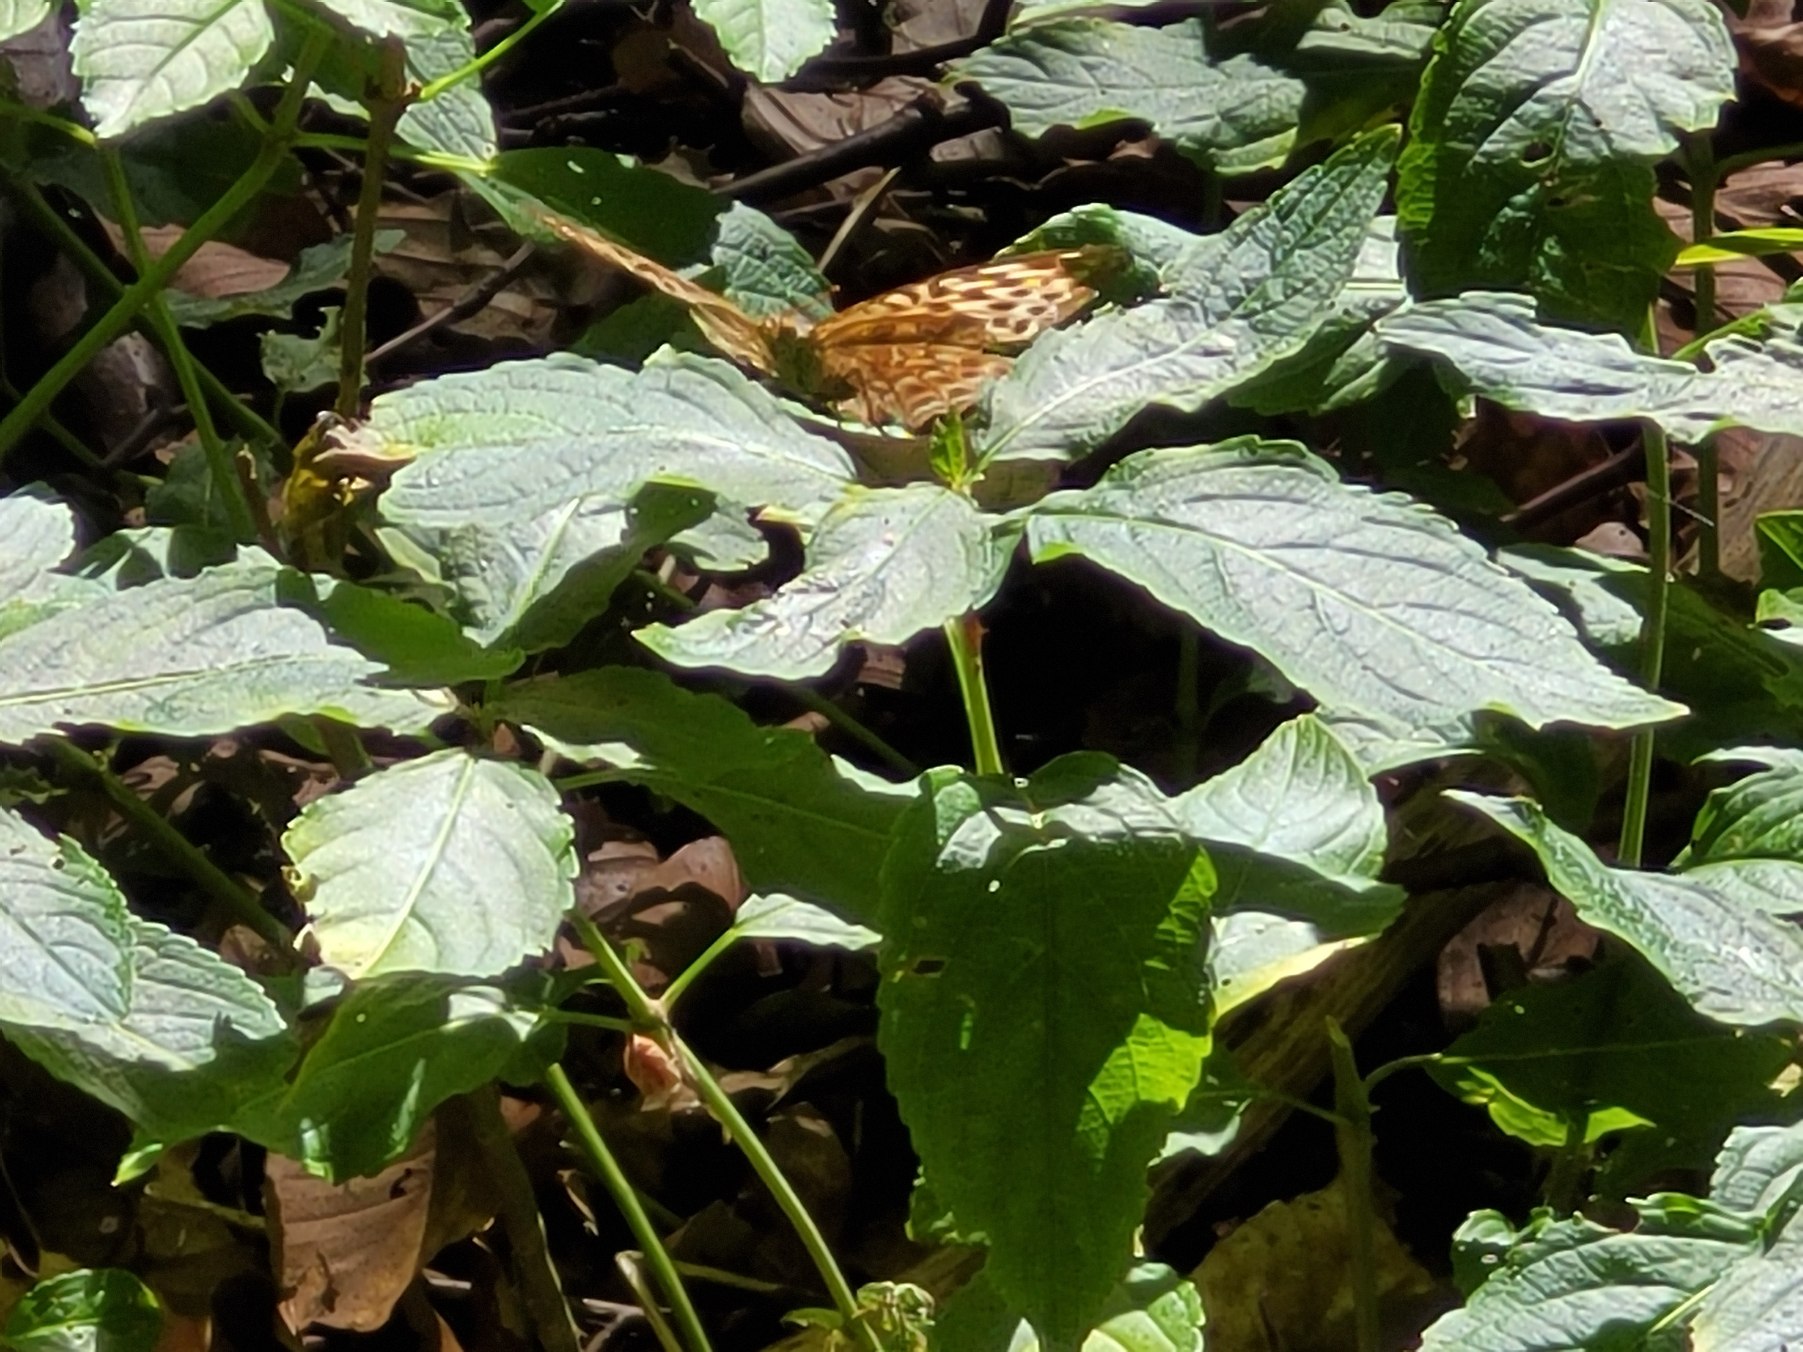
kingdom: Animalia
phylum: Arthropoda
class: Insecta
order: Lepidoptera
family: Nymphalidae
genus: Argynnis
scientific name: Argynnis paphia
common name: Kejserkåbe
